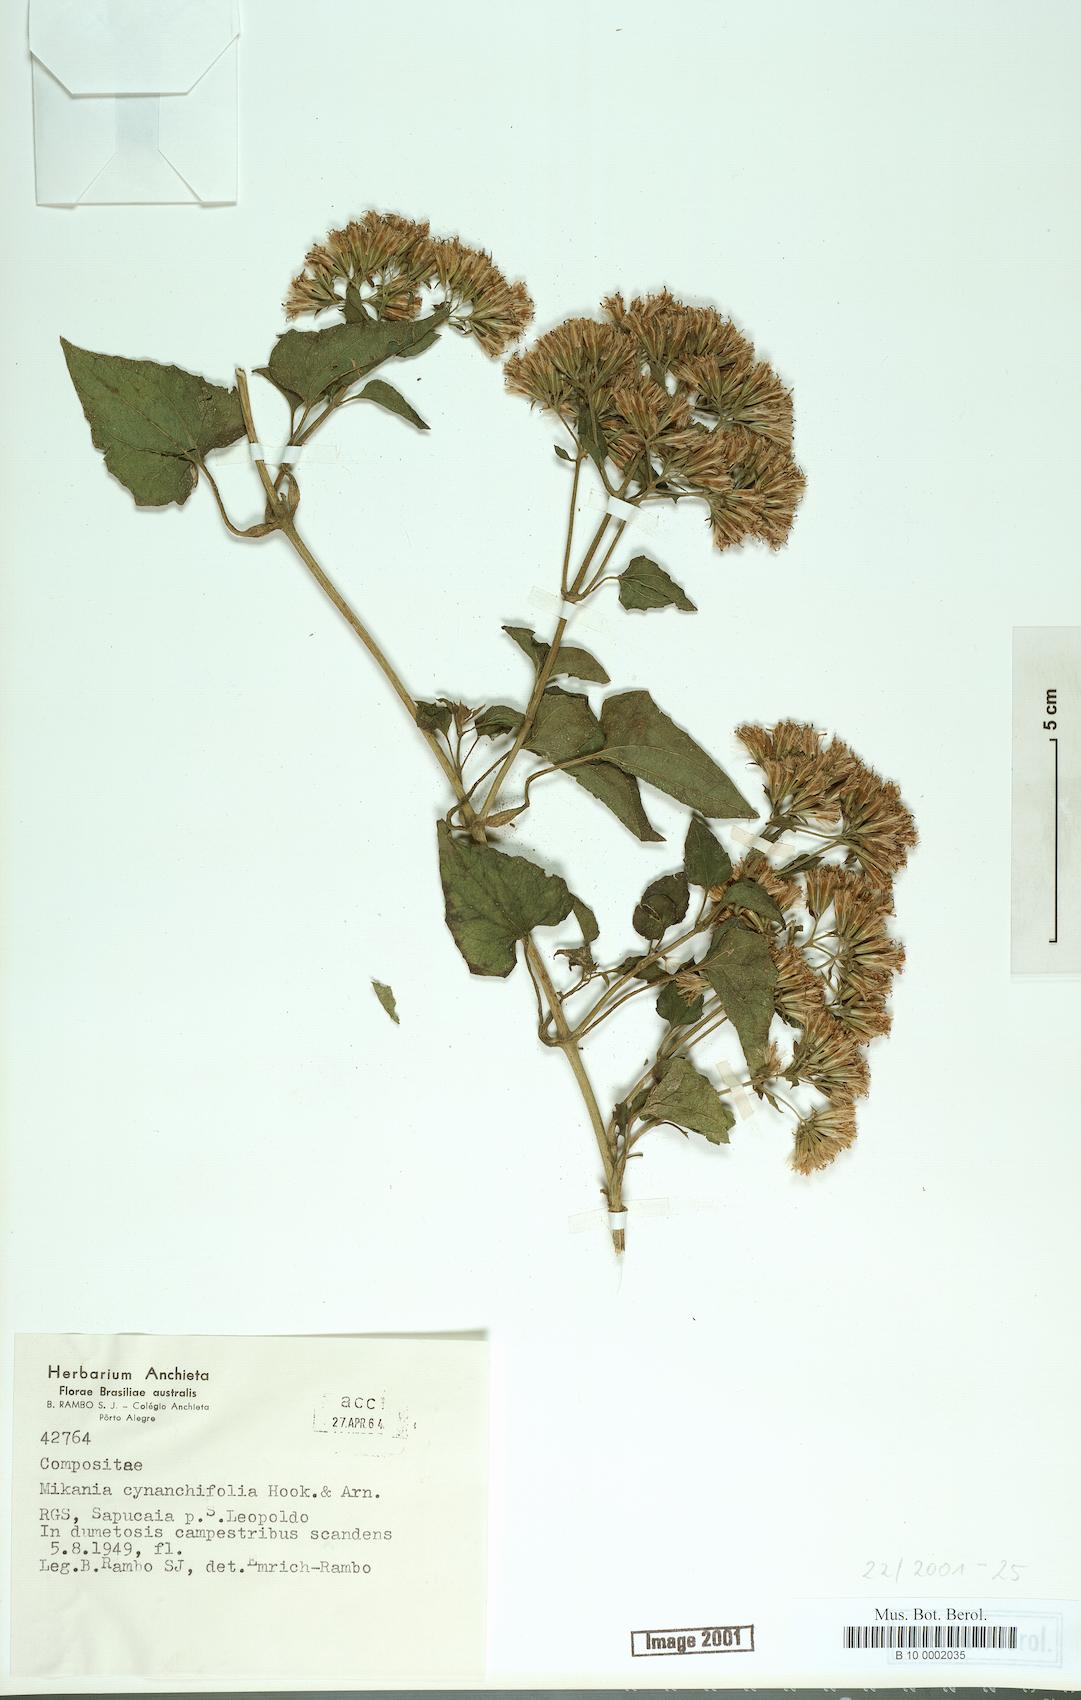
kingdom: Plantae
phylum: Tracheophyta
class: Magnoliopsida
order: Asterales
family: Asteraceae
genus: Mikania
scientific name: Mikania cynanchifolia
